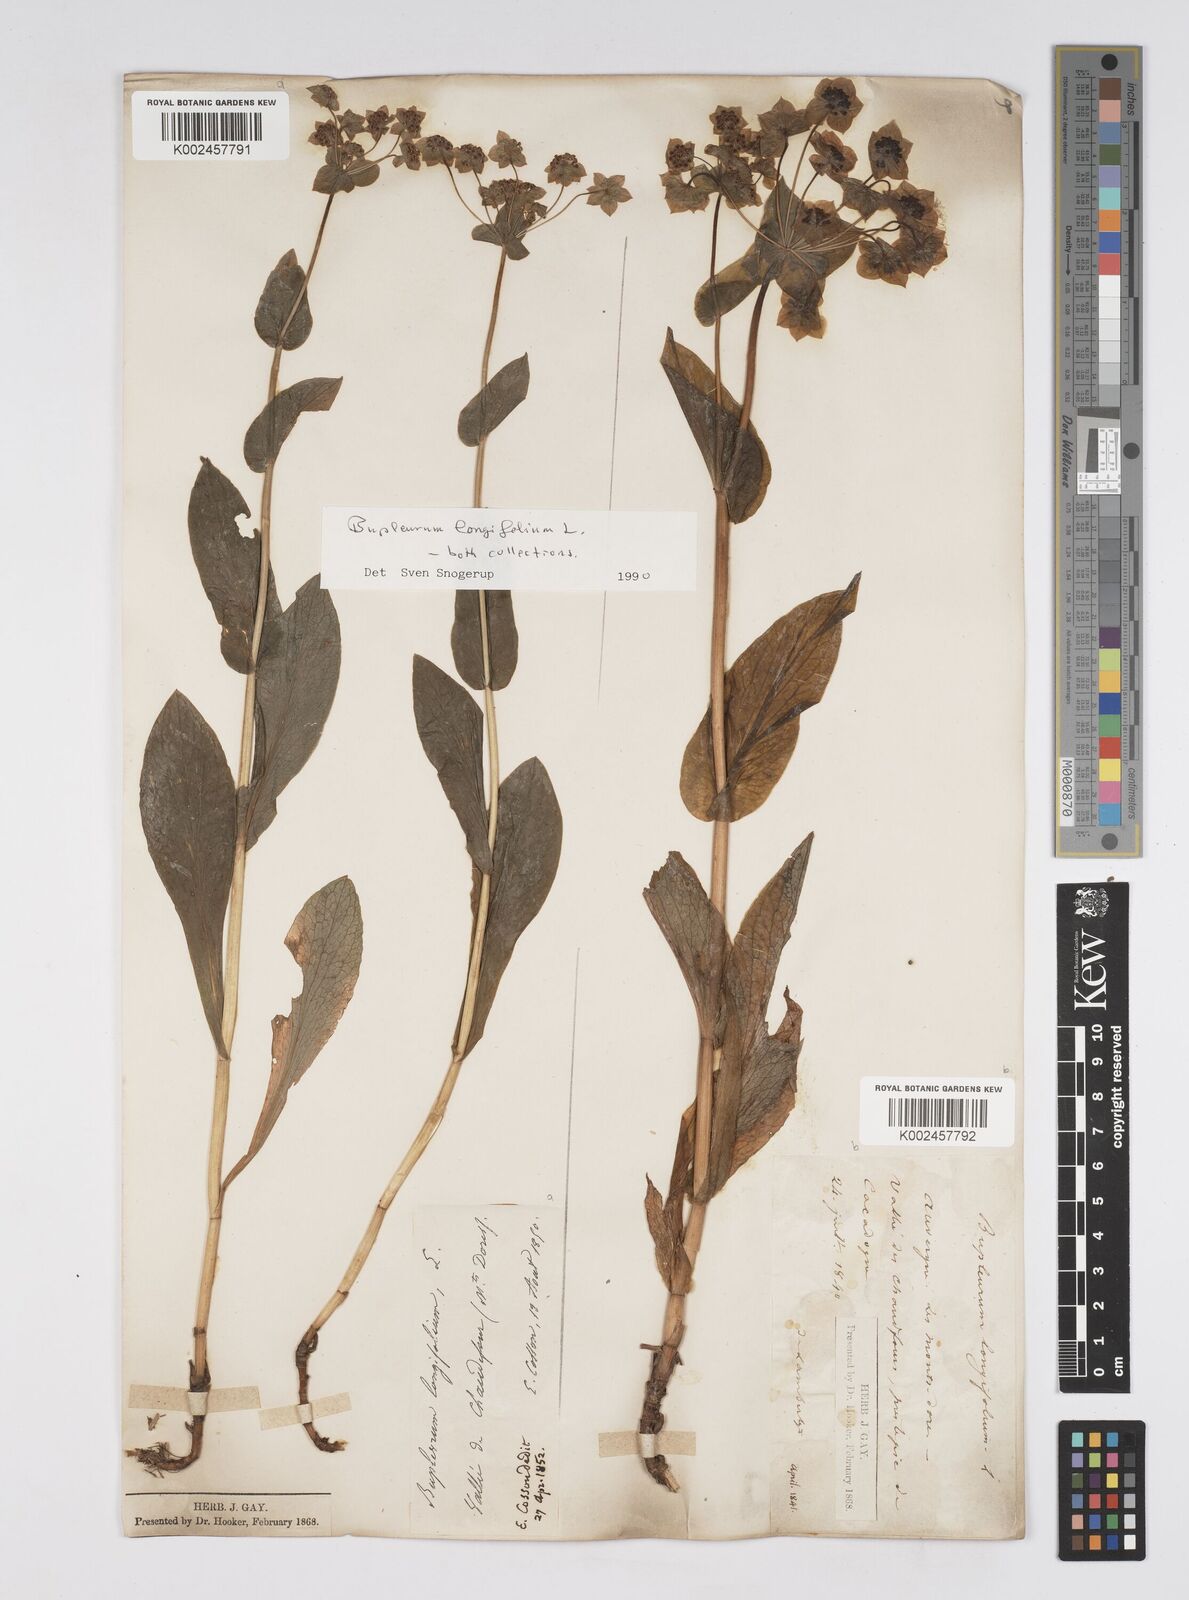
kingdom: Plantae
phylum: Tracheophyta
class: Magnoliopsida
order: Apiales
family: Apiaceae
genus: Bupleurum
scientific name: Bupleurum longifolium
